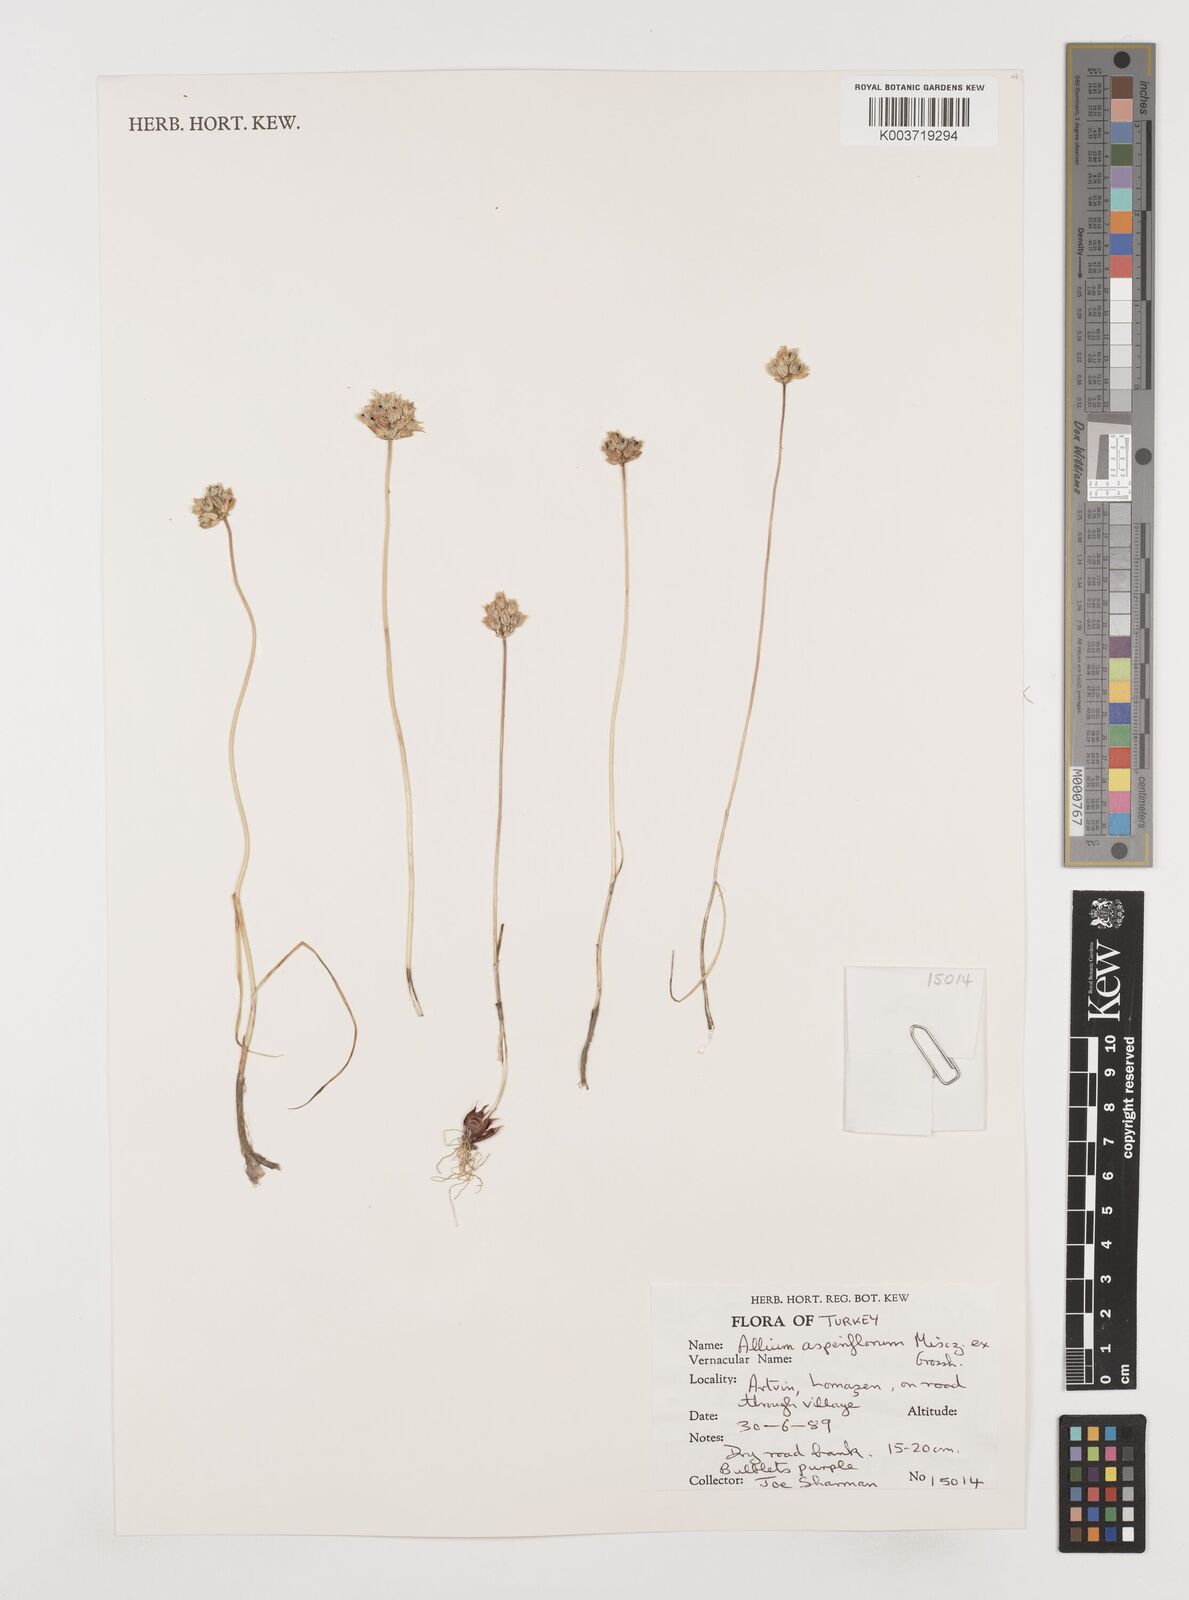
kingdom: Plantae
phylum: Tracheophyta
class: Liliopsida
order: Asparagales
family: Amaryllidaceae
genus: Allium
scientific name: Allium asperiflorum
